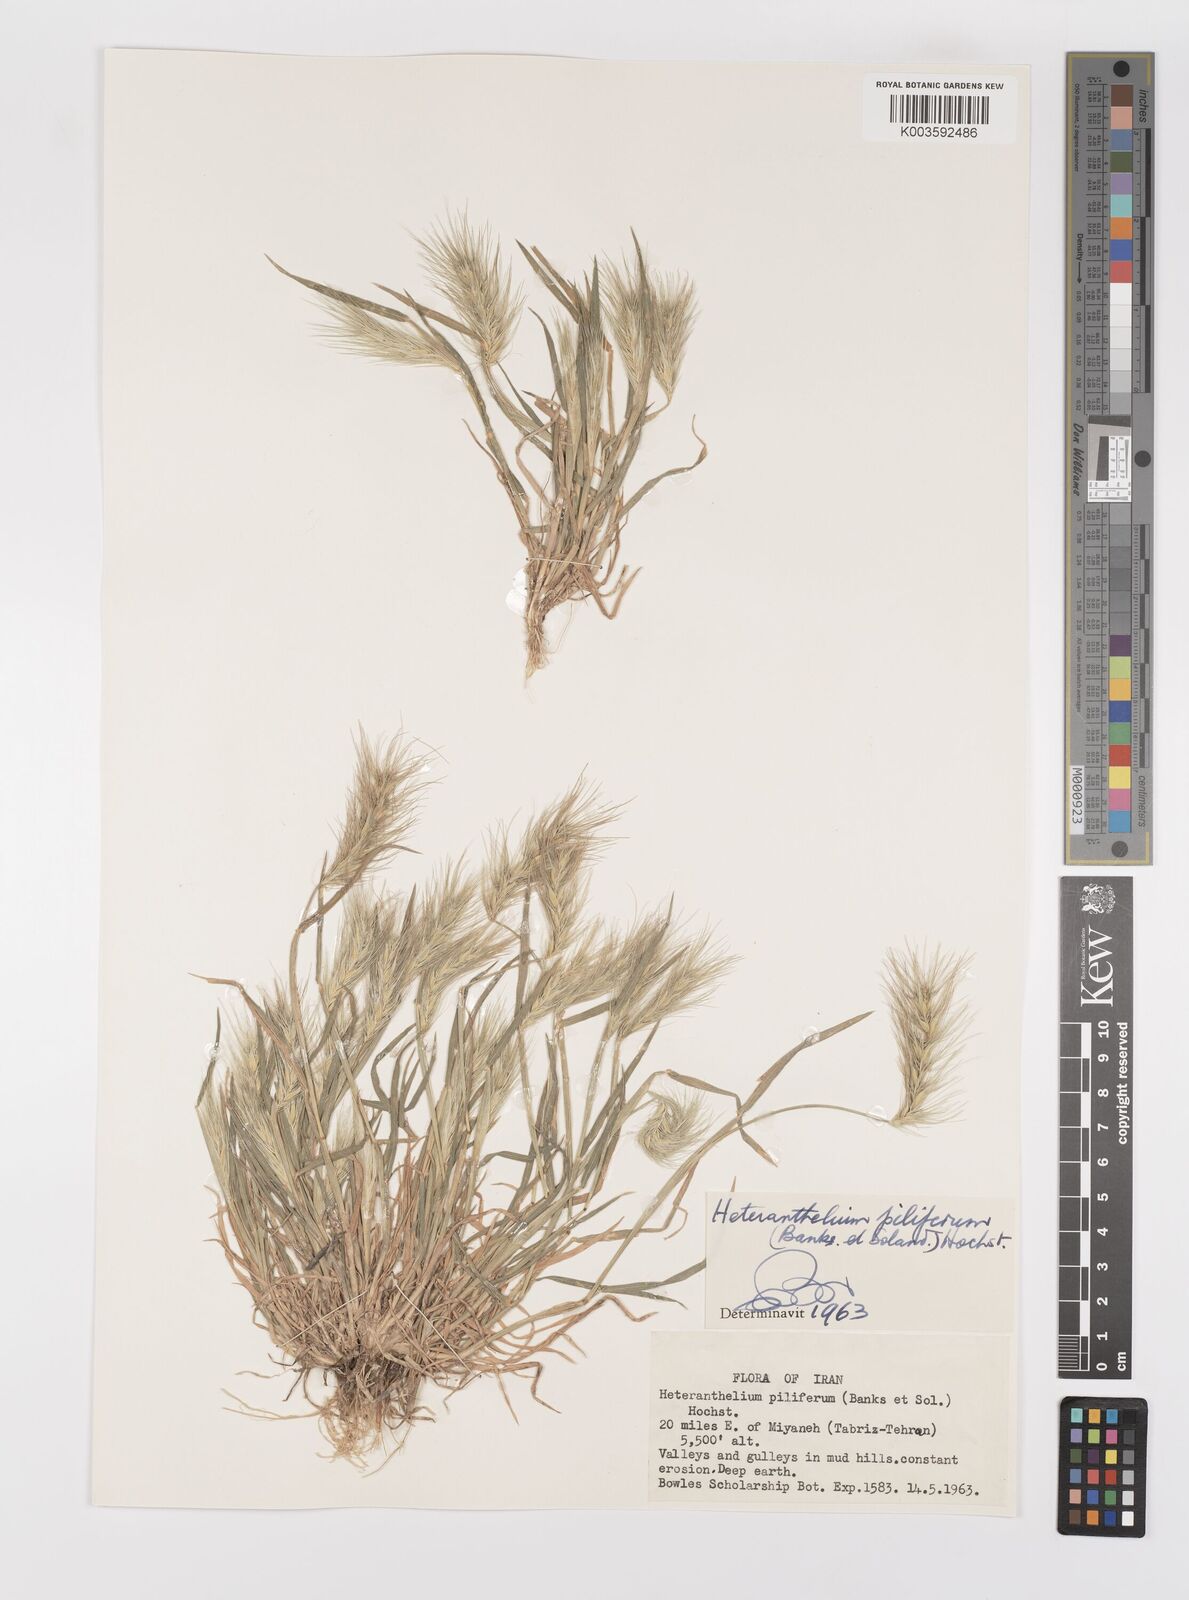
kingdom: Plantae
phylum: Tracheophyta
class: Liliopsida
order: Poales
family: Poaceae
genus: Heteranthelium
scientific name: Heteranthelium piliferum
